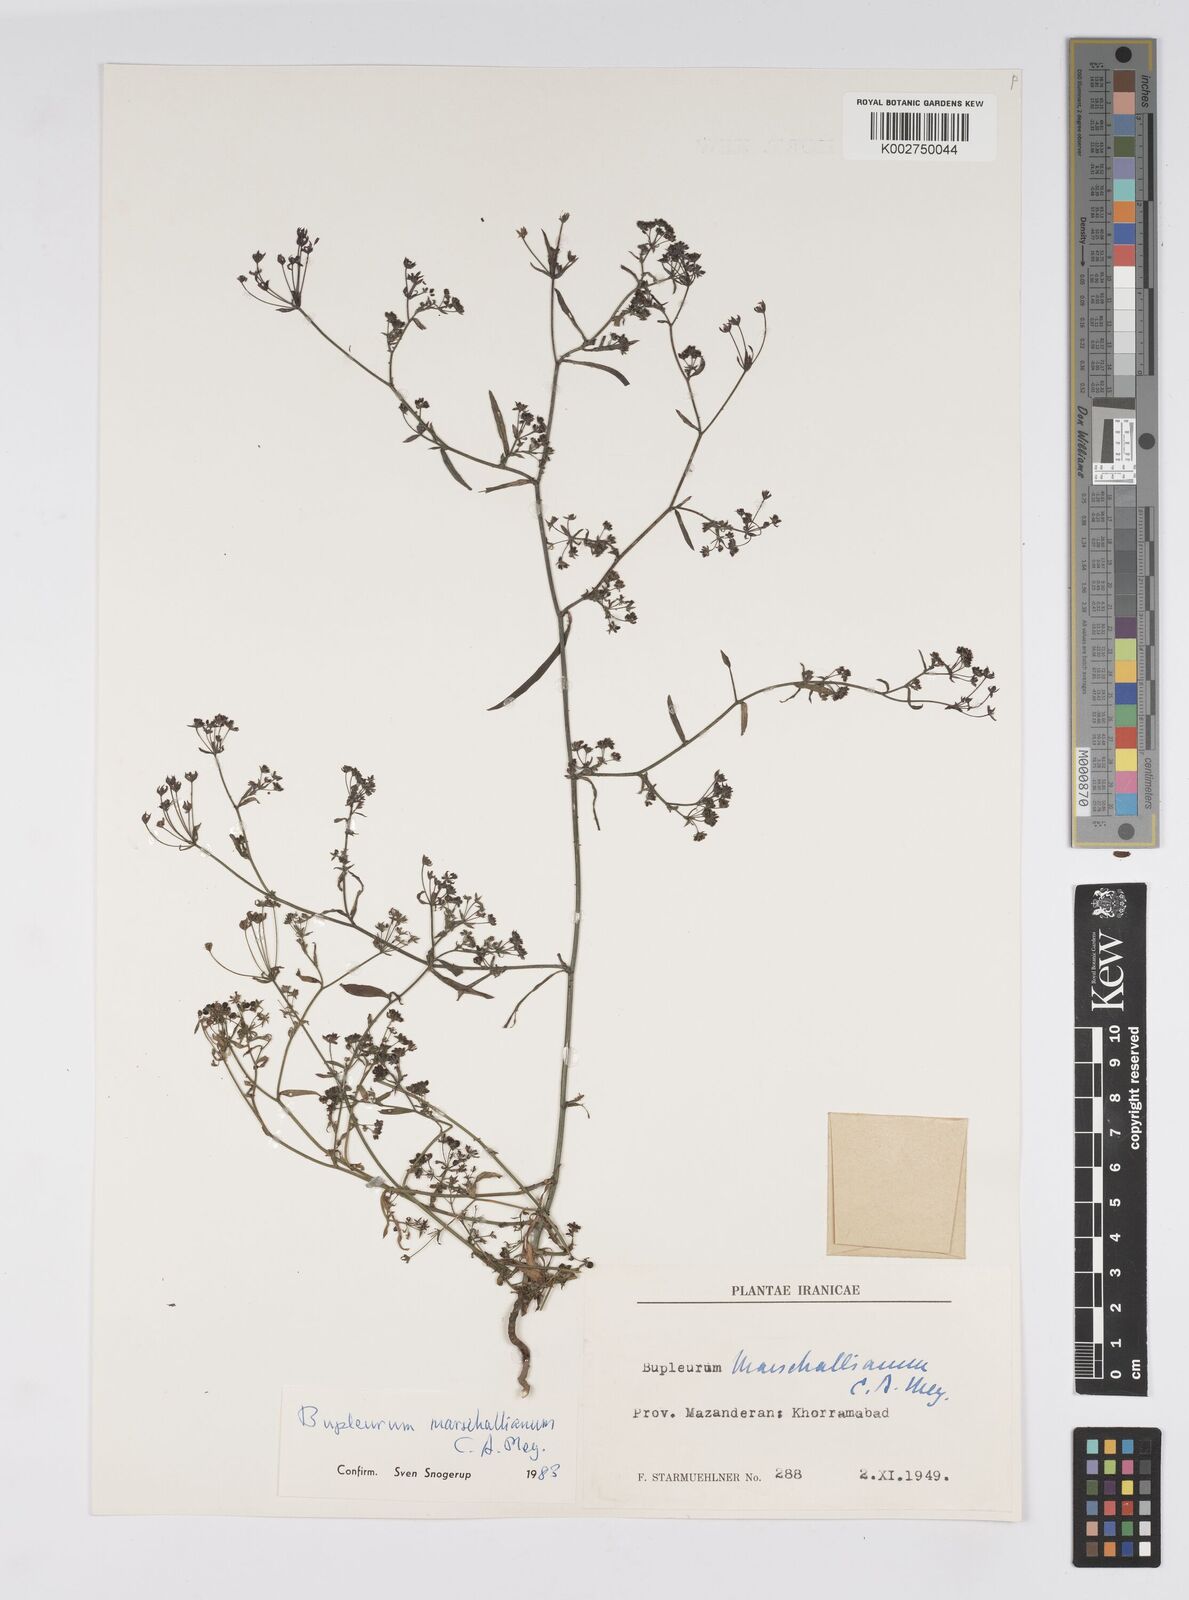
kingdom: Plantae
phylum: Tracheophyta
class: Magnoliopsida
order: Apiales
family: Apiaceae
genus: Bupleurum
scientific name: Bupleurum marschallianum
